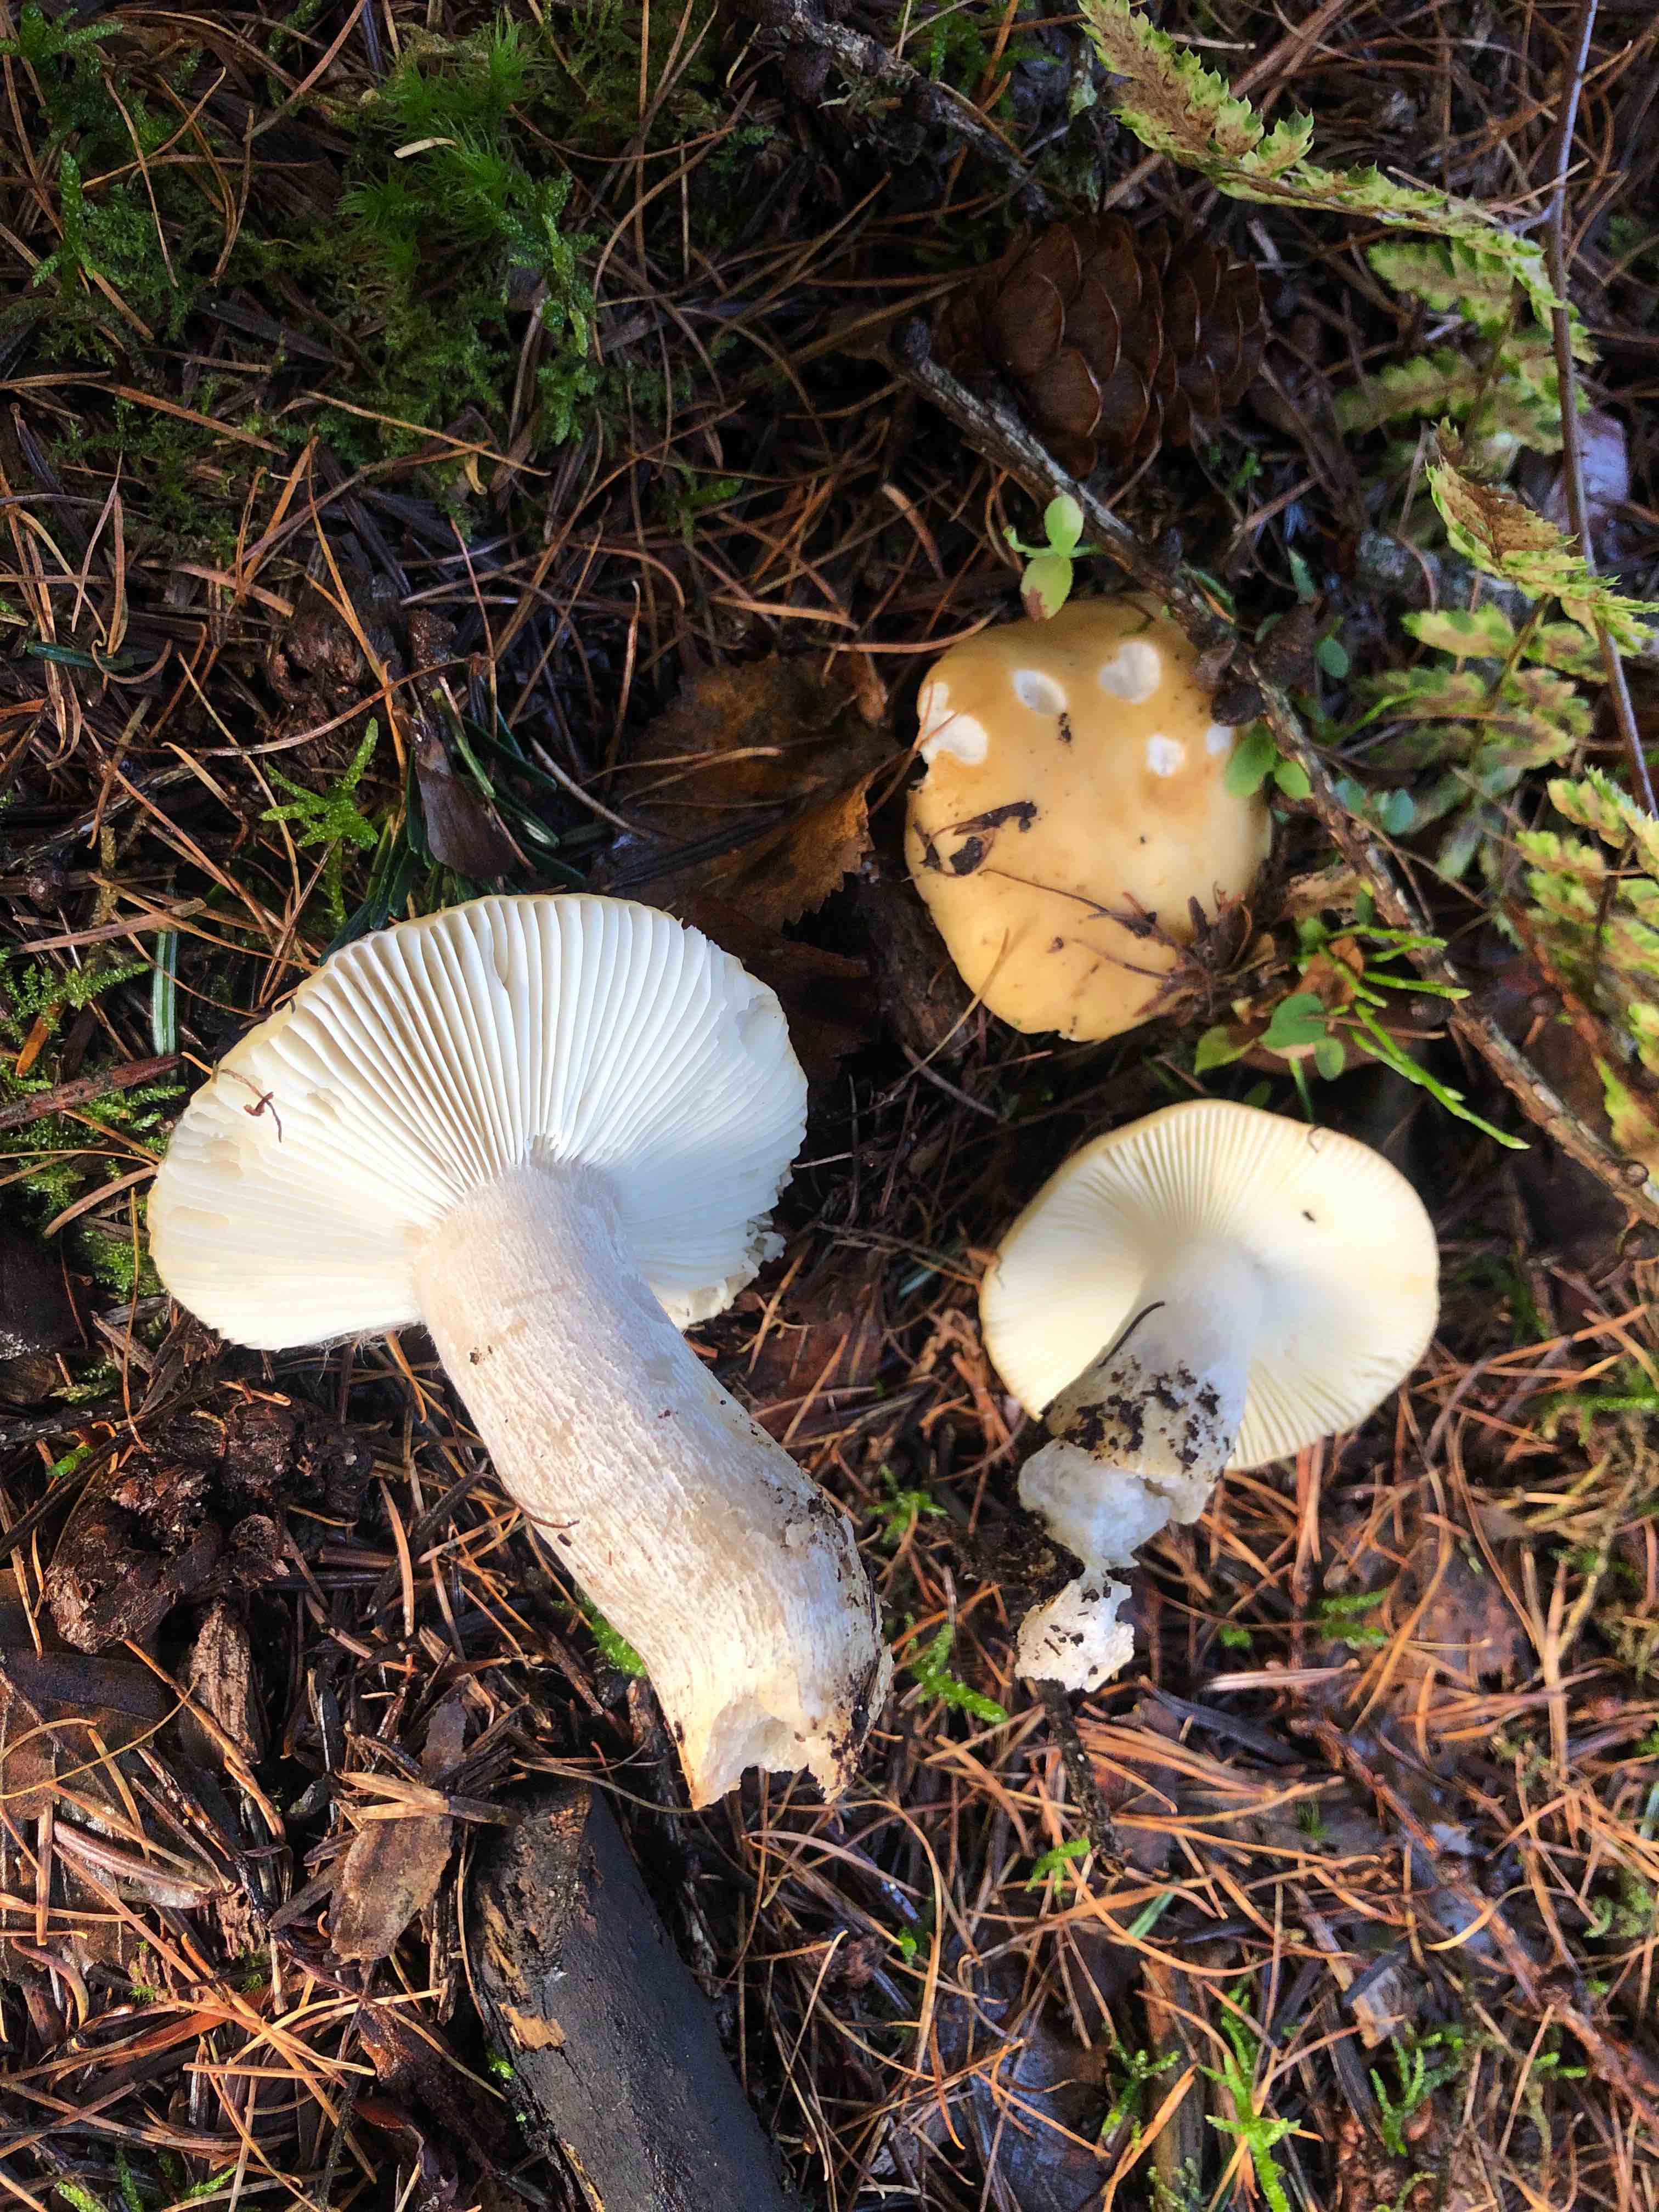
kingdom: Fungi
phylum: Basidiomycota
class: Agaricomycetes
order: Russulales
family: Russulaceae
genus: Russula
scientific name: Russula ochroleuca
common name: okkergul skørhat
